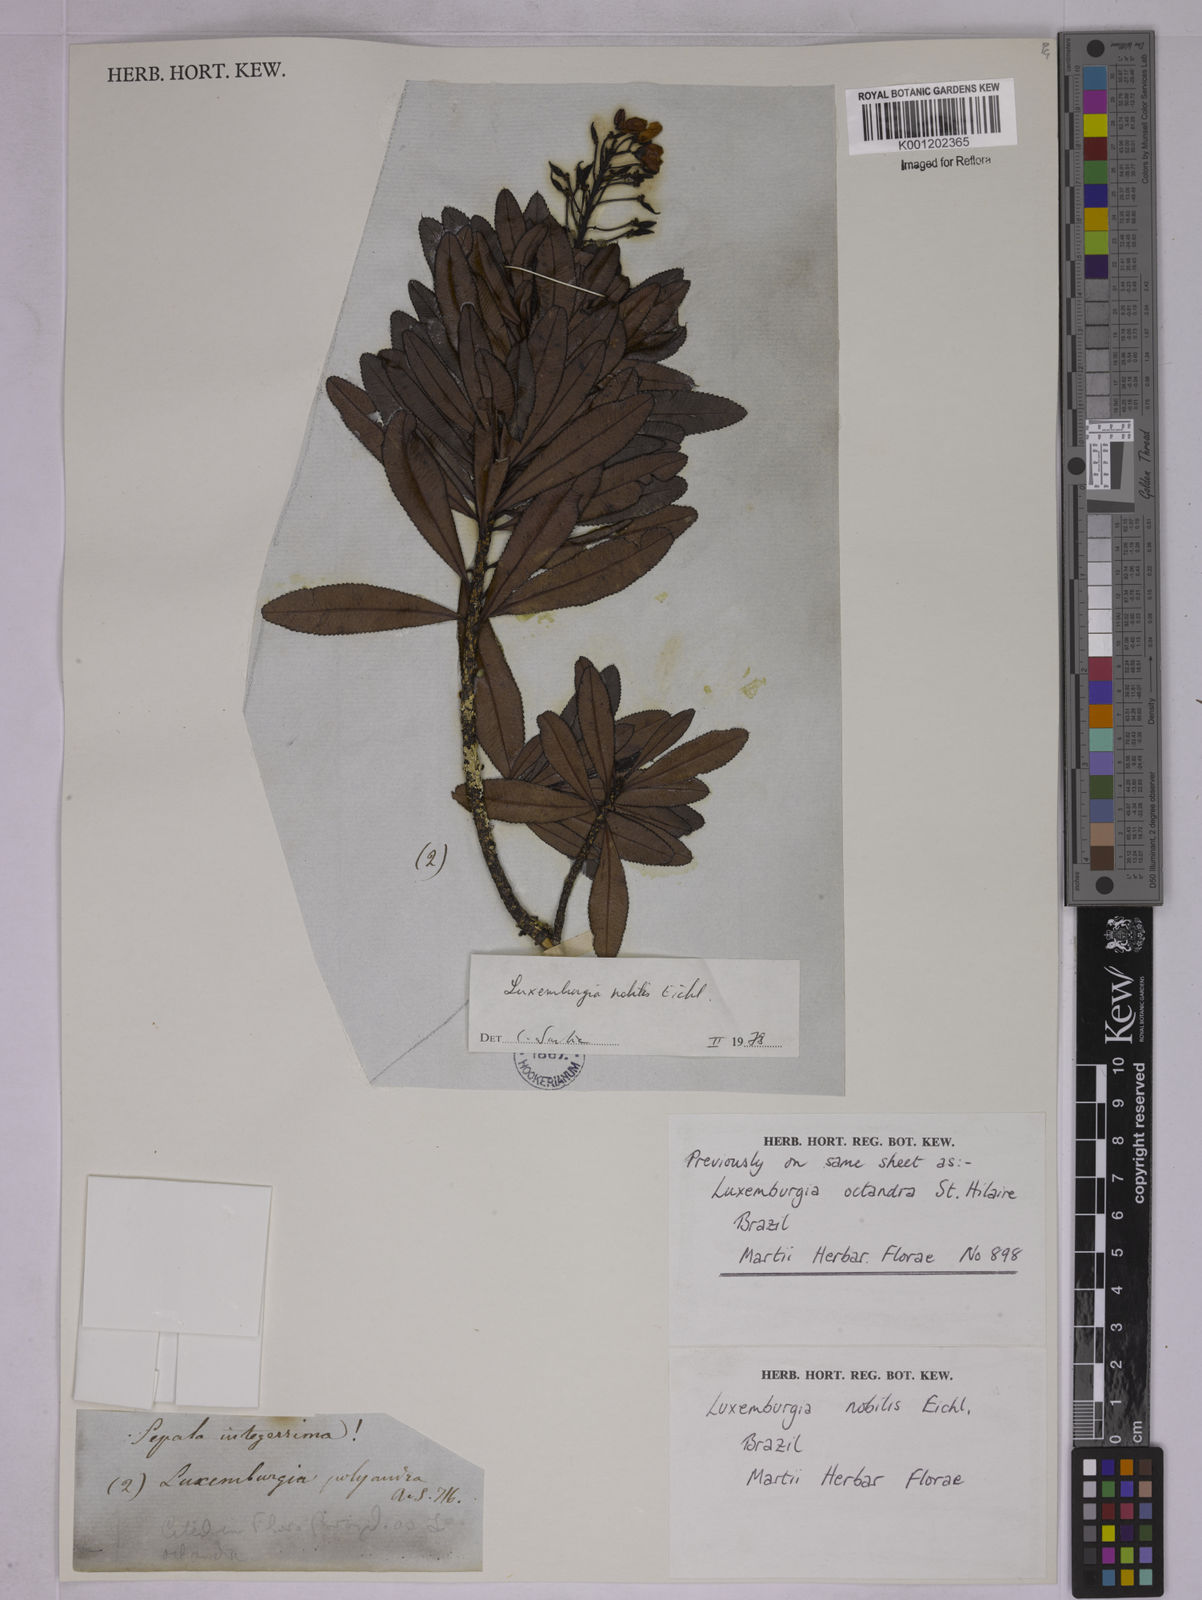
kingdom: Plantae
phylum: Tracheophyta
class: Magnoliopsida
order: Malpighiales
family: Ochnaceae
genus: Luxemburgia
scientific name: Luxemburgia nobilis
